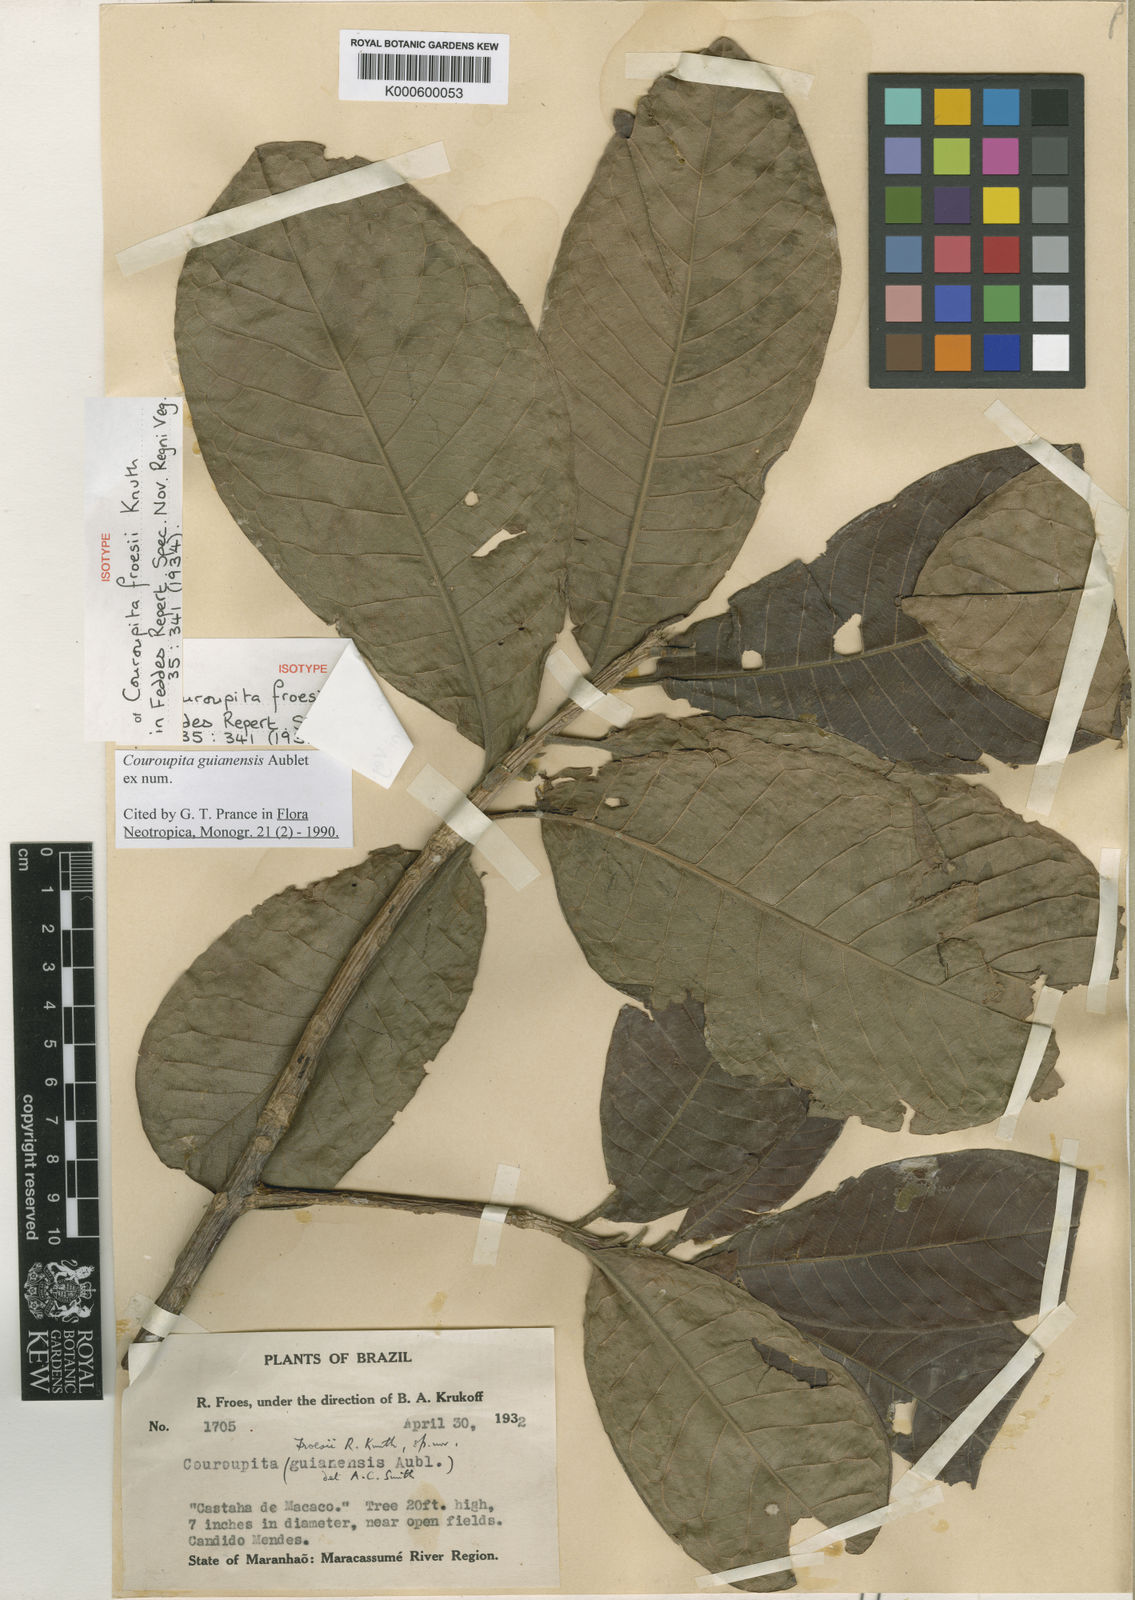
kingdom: Plantae
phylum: Tracheophyta
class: Magnoliopsida
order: Ericales
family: Lecythidaceae
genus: Couroupita
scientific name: Couroupita guianensis
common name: Cannonball tree
